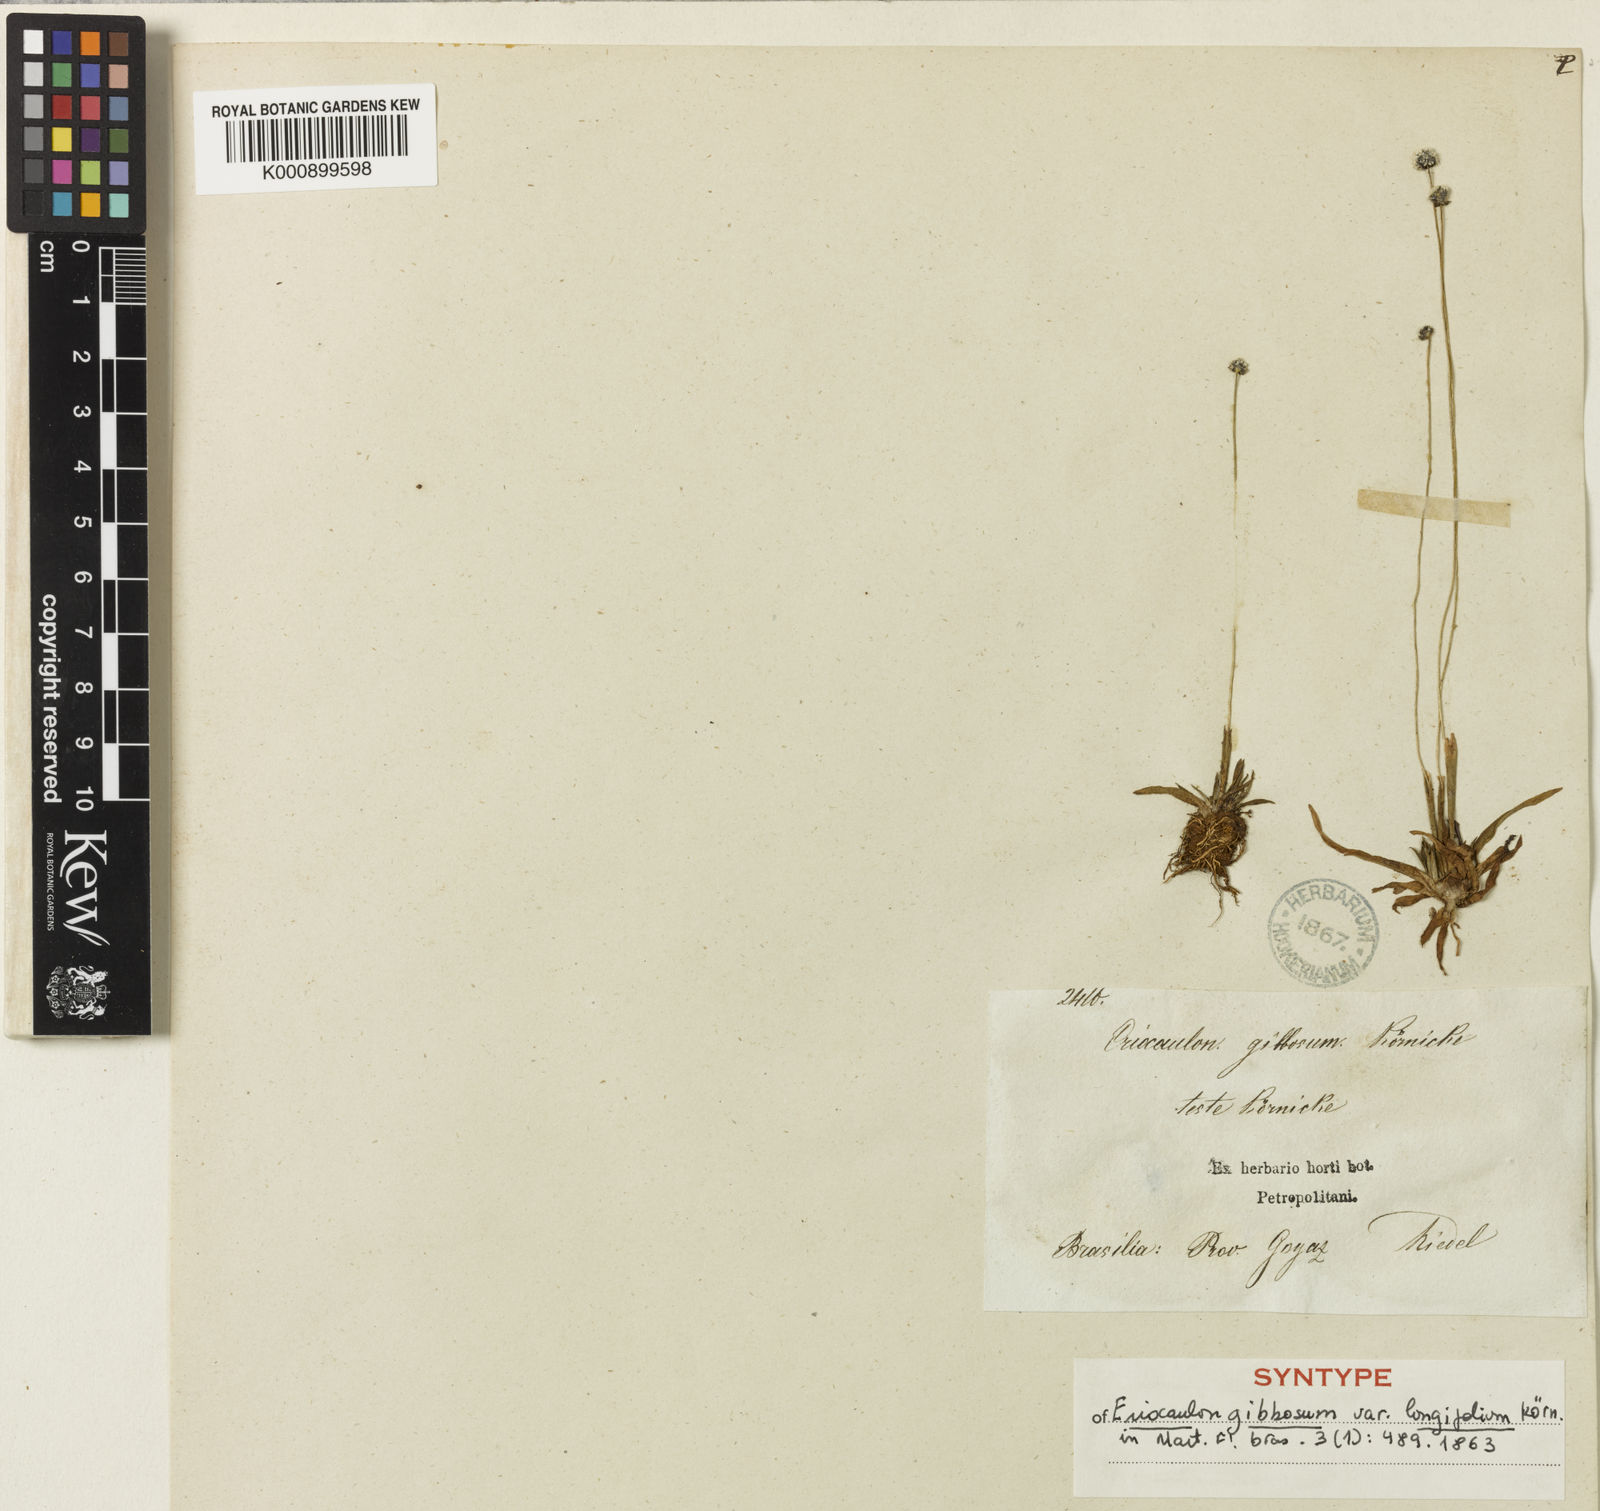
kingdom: Plantae
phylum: Tracheophyta
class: Liliopsida
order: Poales
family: Eriocaulaceae
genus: Eriocaulon
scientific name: Eriocaulon
